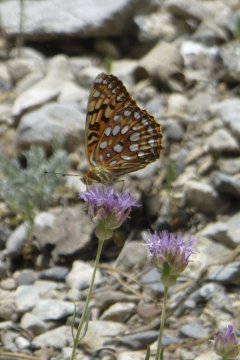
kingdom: Animalia
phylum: Arthropoda
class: Insecta
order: Lepidoptera
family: Nymphalidae
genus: Speyeria
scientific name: Speyeria coronis
